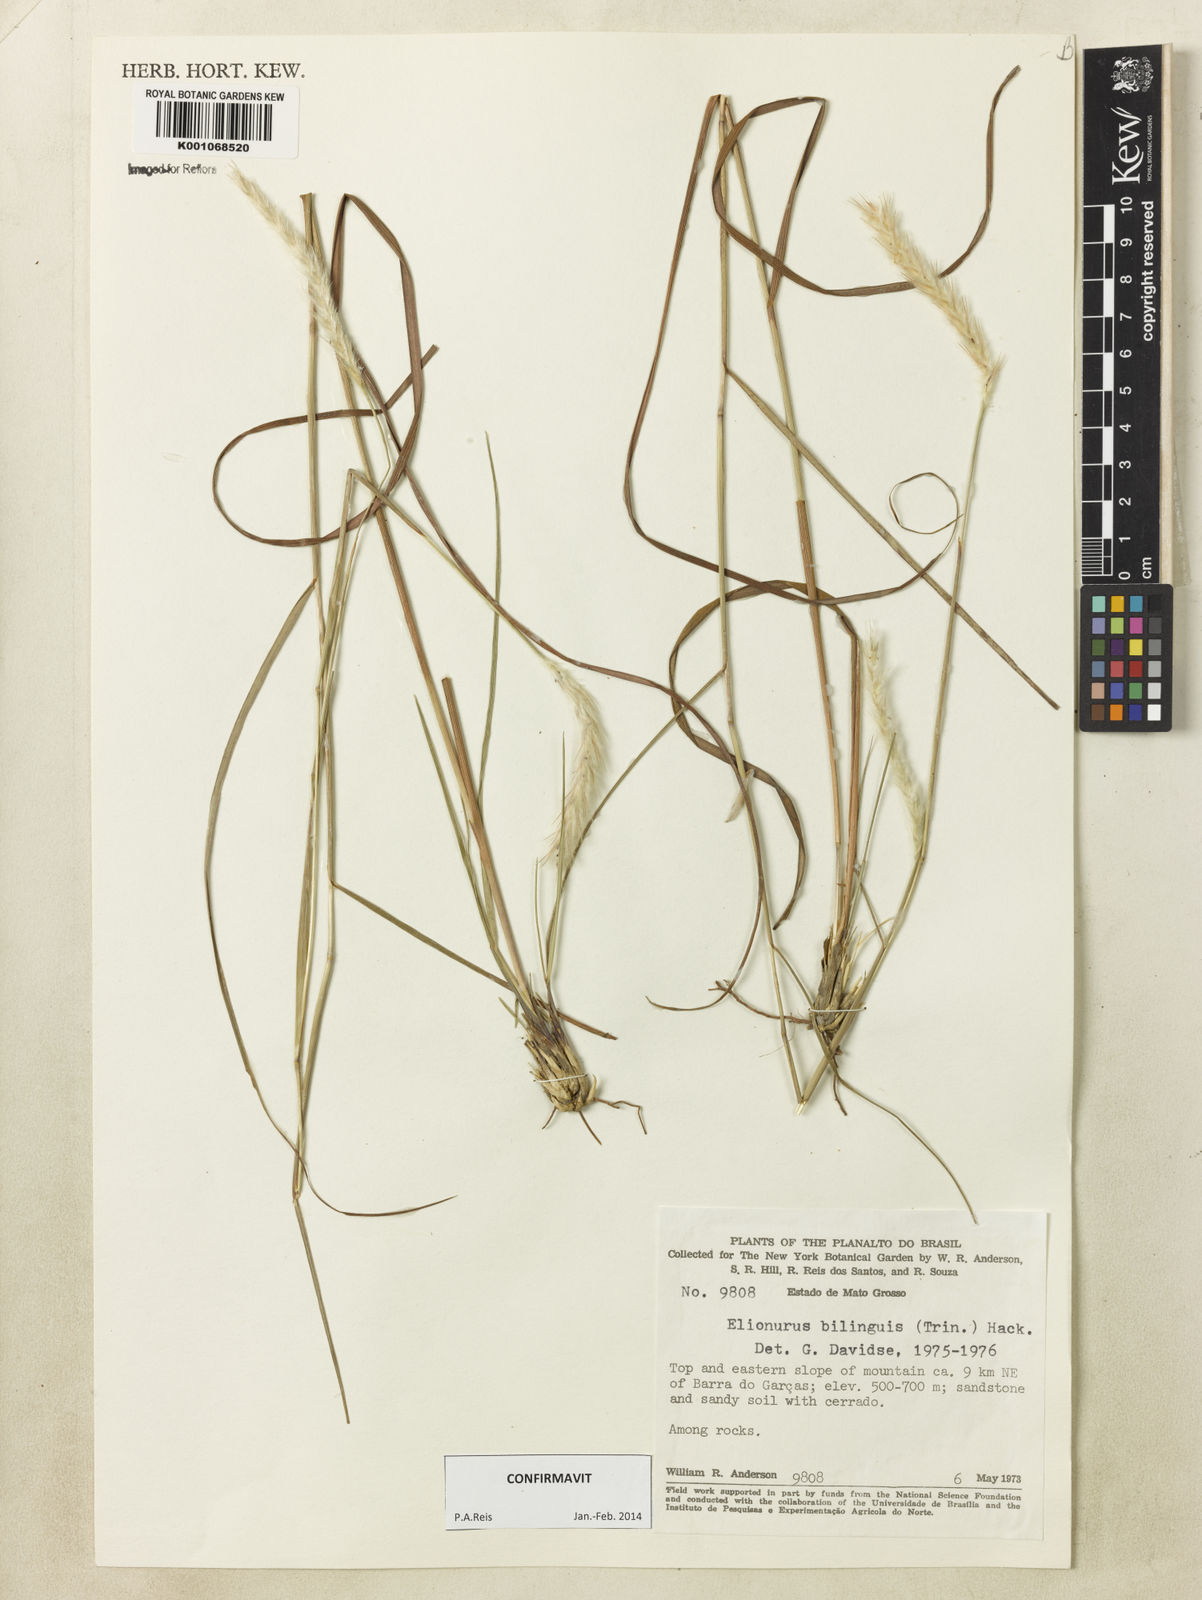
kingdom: Plantae
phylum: Tracheophyta
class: Liliopsida
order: Poales
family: Poaceae
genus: Elionurus
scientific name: Elionurus bilinguis
